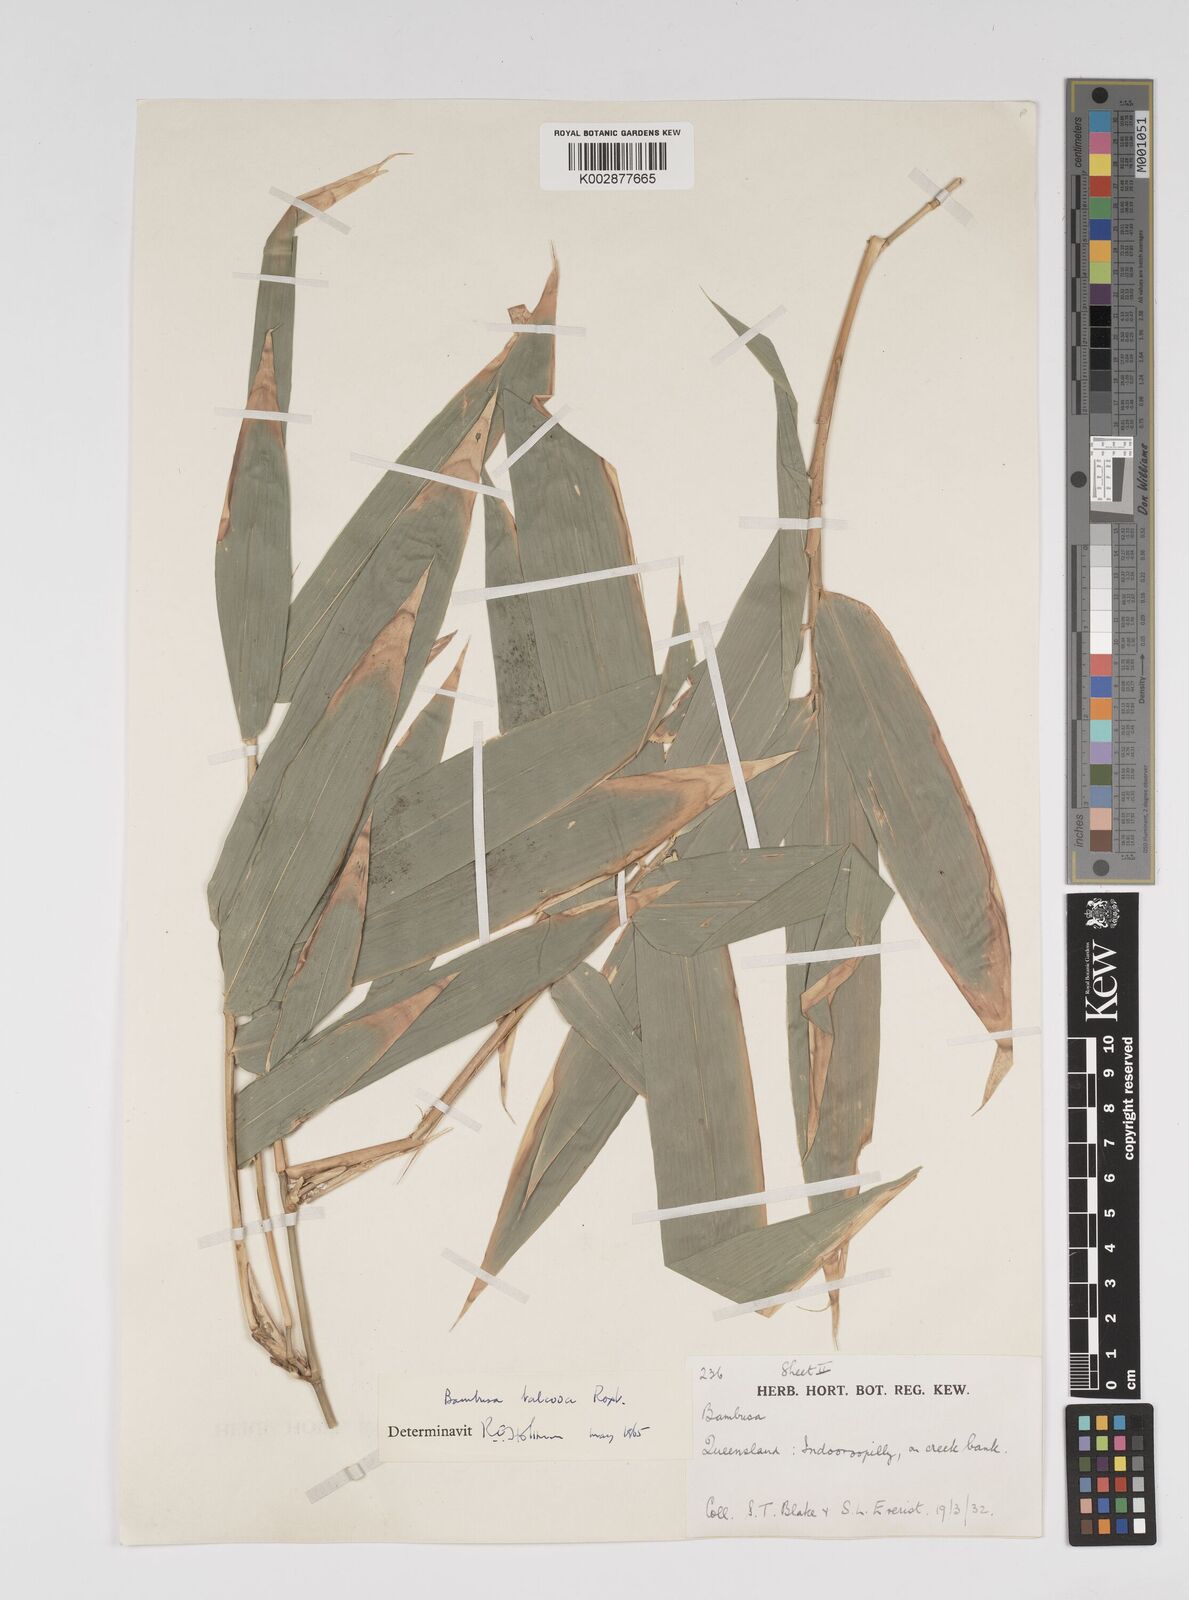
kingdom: Plantae
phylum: Tracheophyta
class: Liliopsida
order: Poales
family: Poaceae
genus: Bambusa
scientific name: Bambusa balcooa
